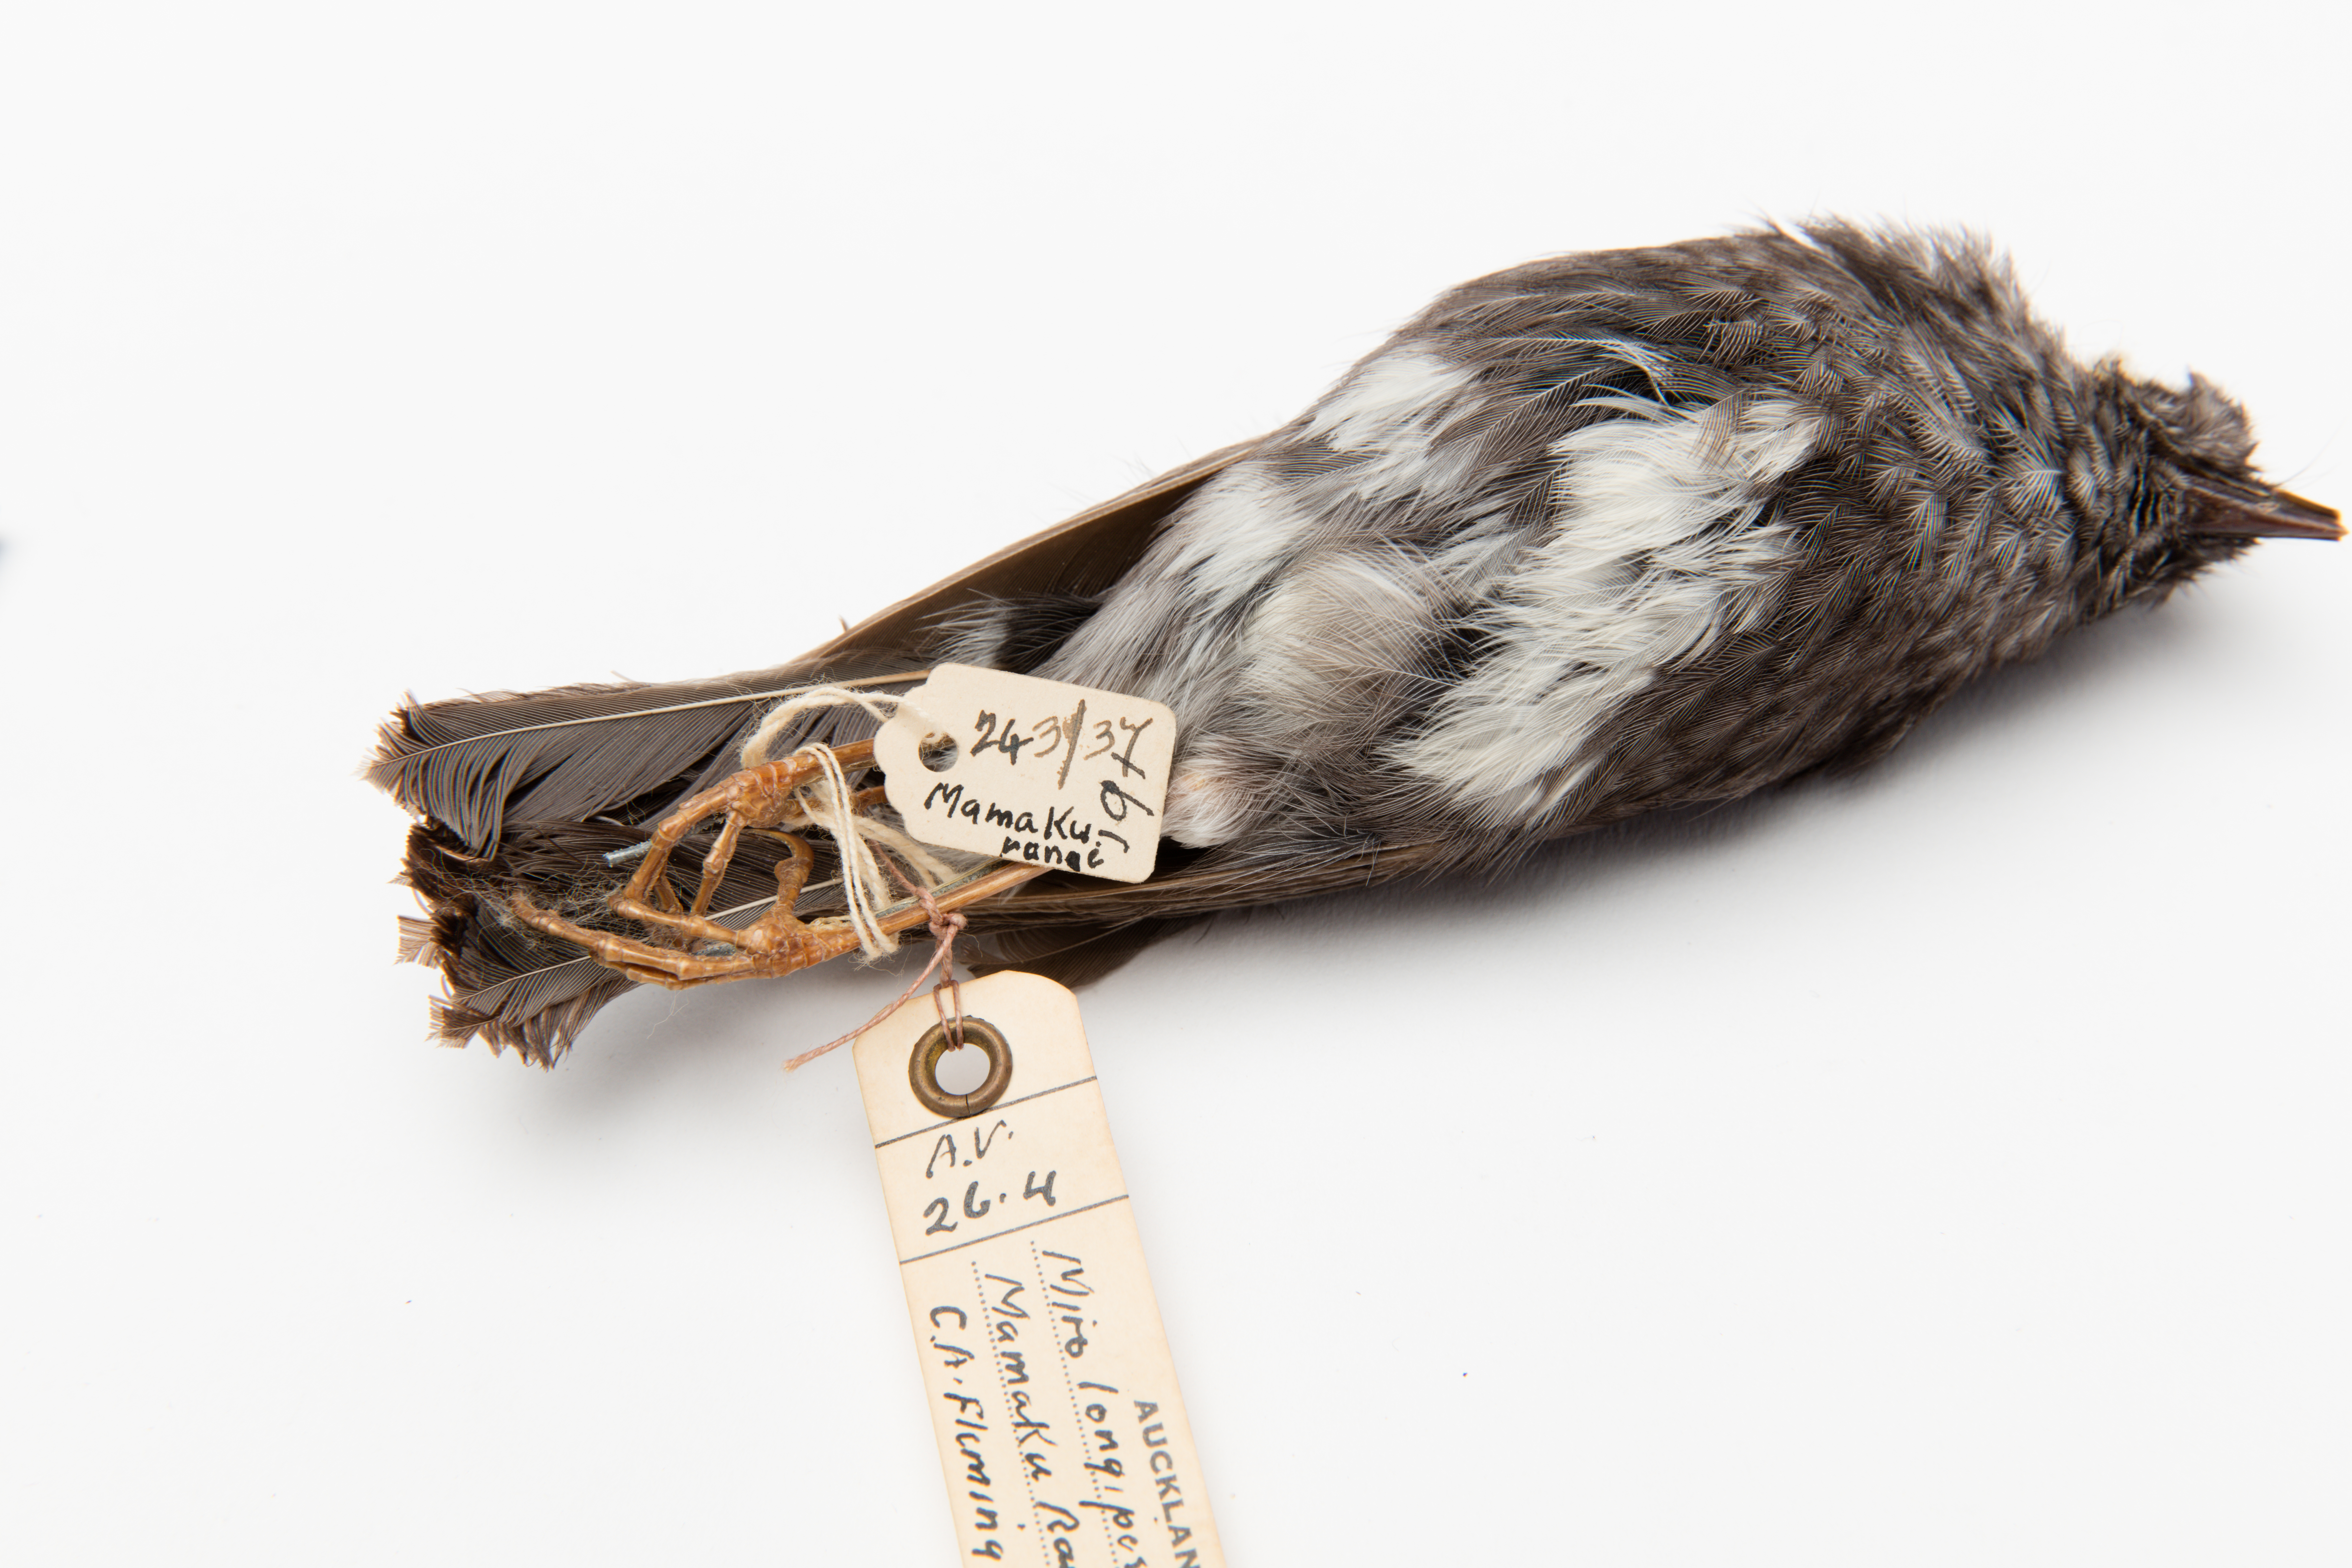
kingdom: Animalia
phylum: Chordata
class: Aves
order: Passeriformes
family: Petroicidae
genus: Petroica
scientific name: Petroica australis
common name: New zealand robin
